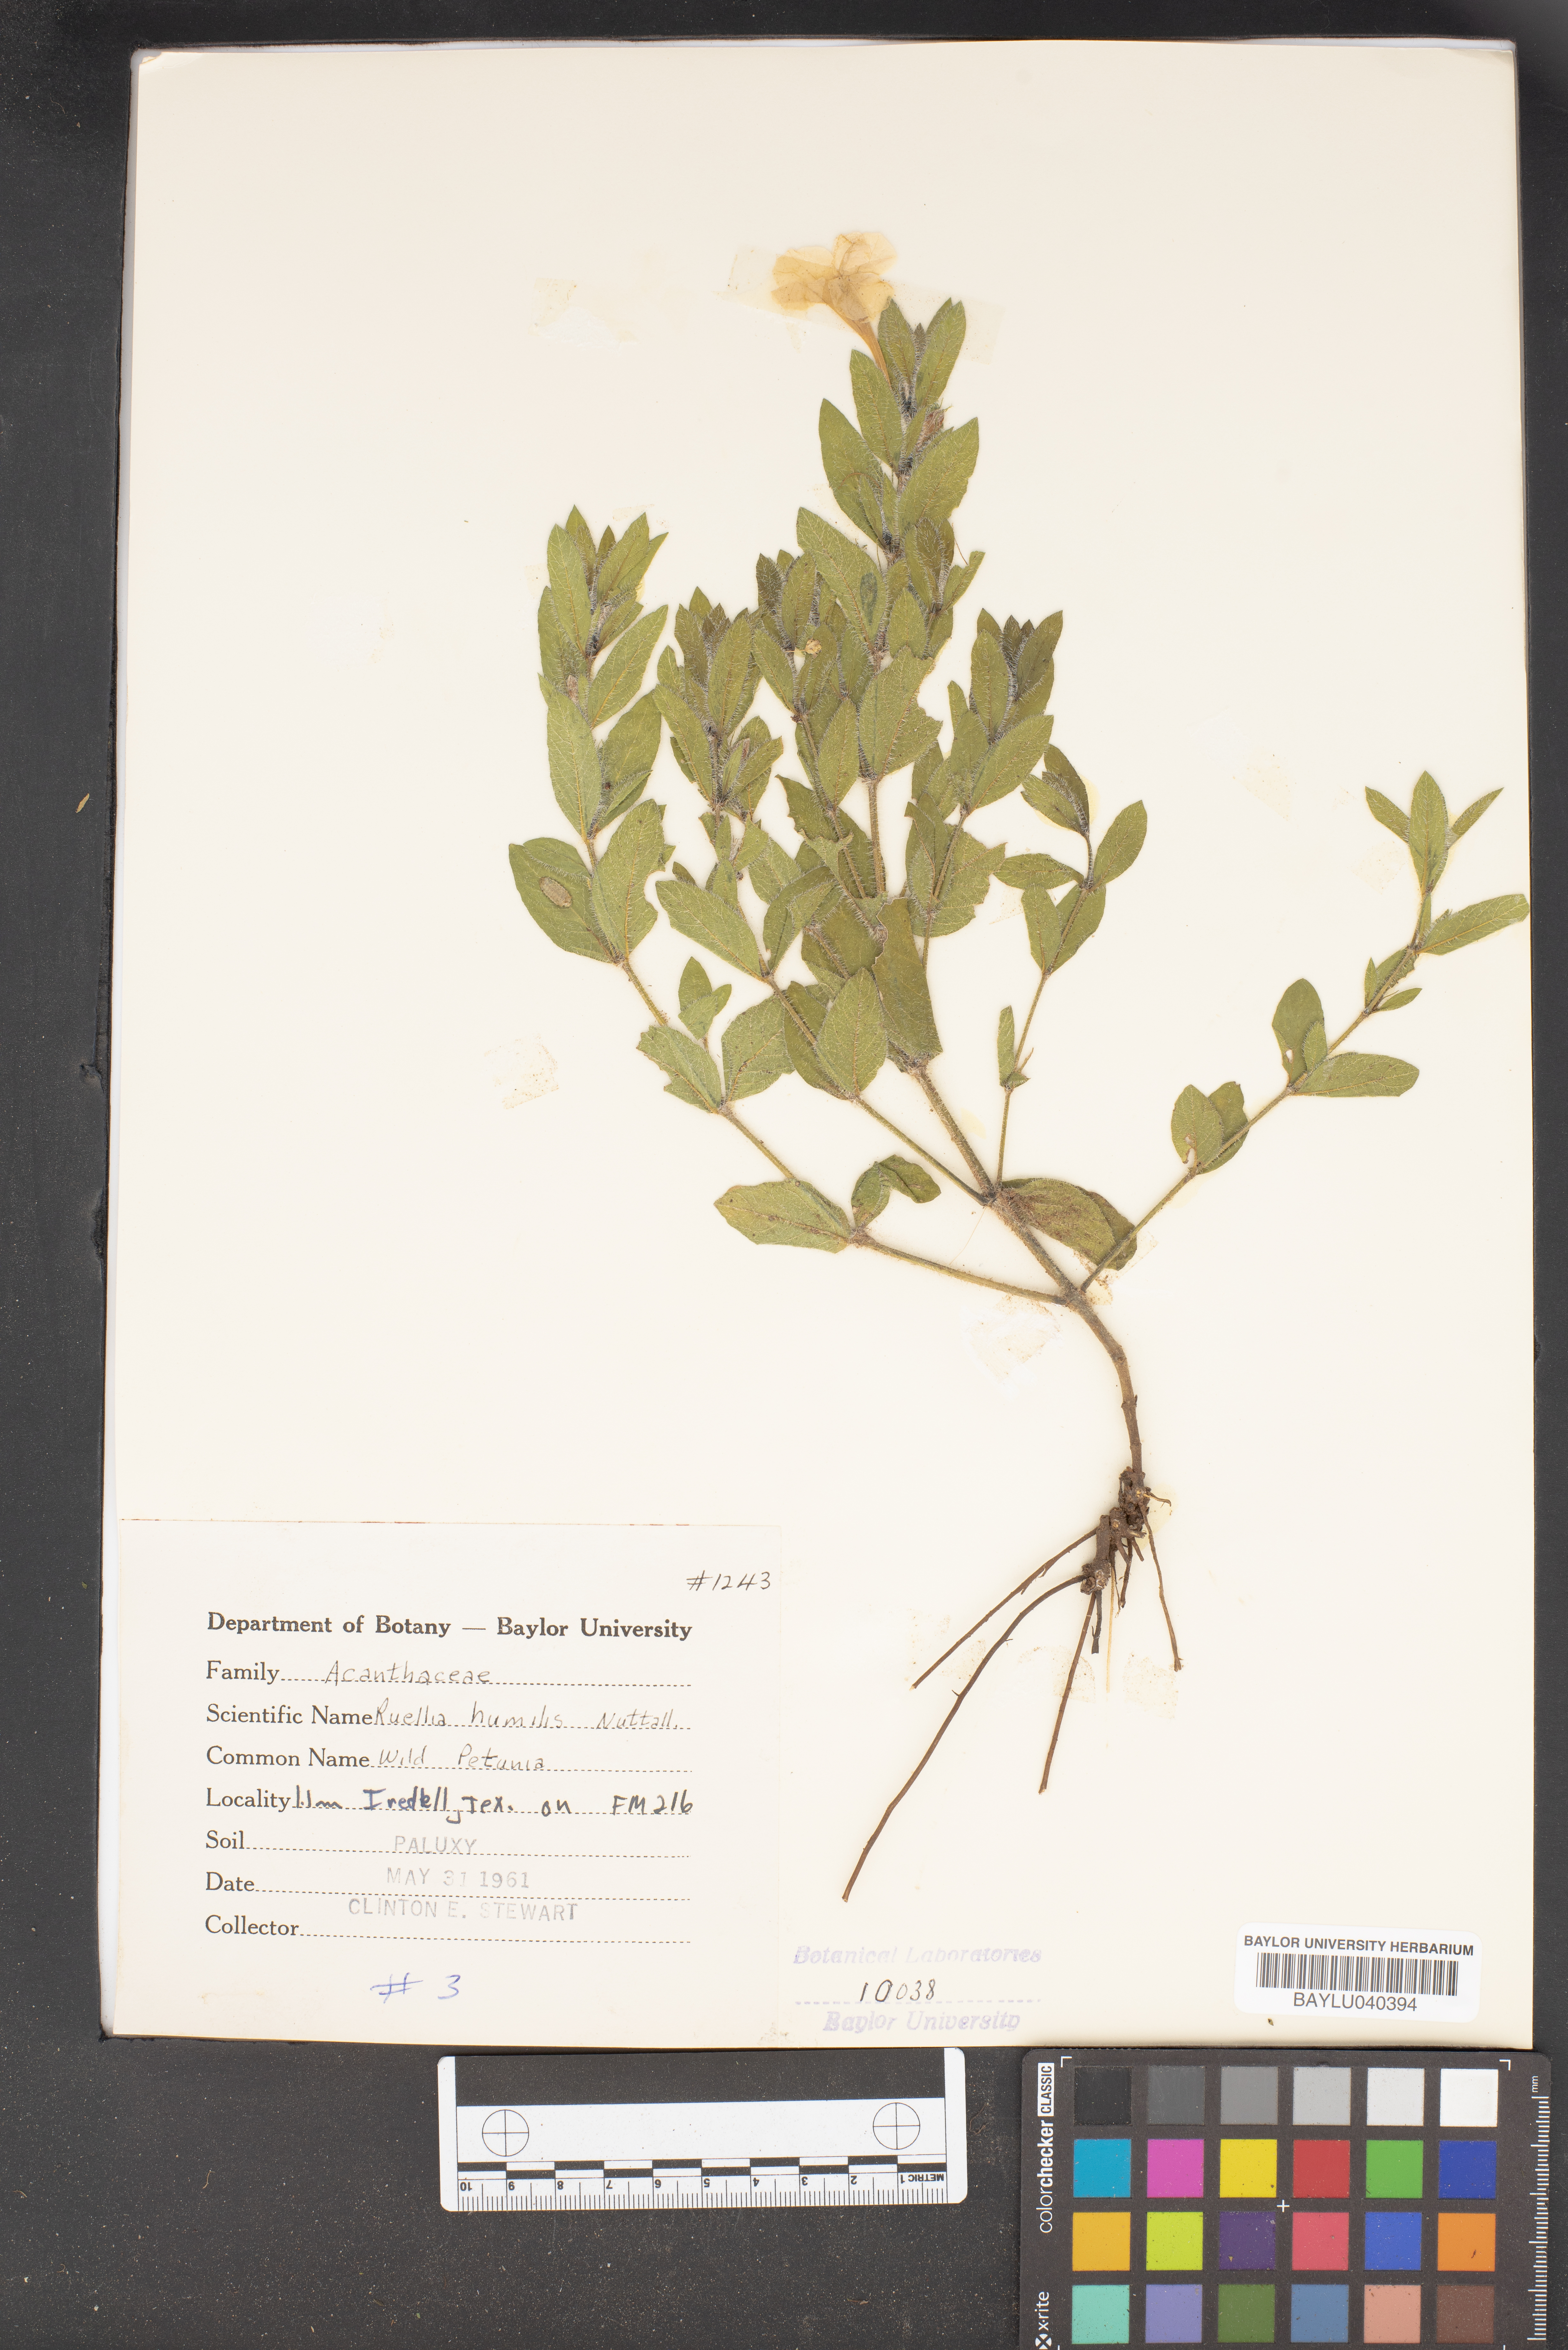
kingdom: Plantae
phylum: Tracheophyta
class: Magnoliopsida
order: Lamiales
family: Acanthaceae
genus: Ruellia
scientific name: Ruellia humilis
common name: Fringe-leaf ruellia
